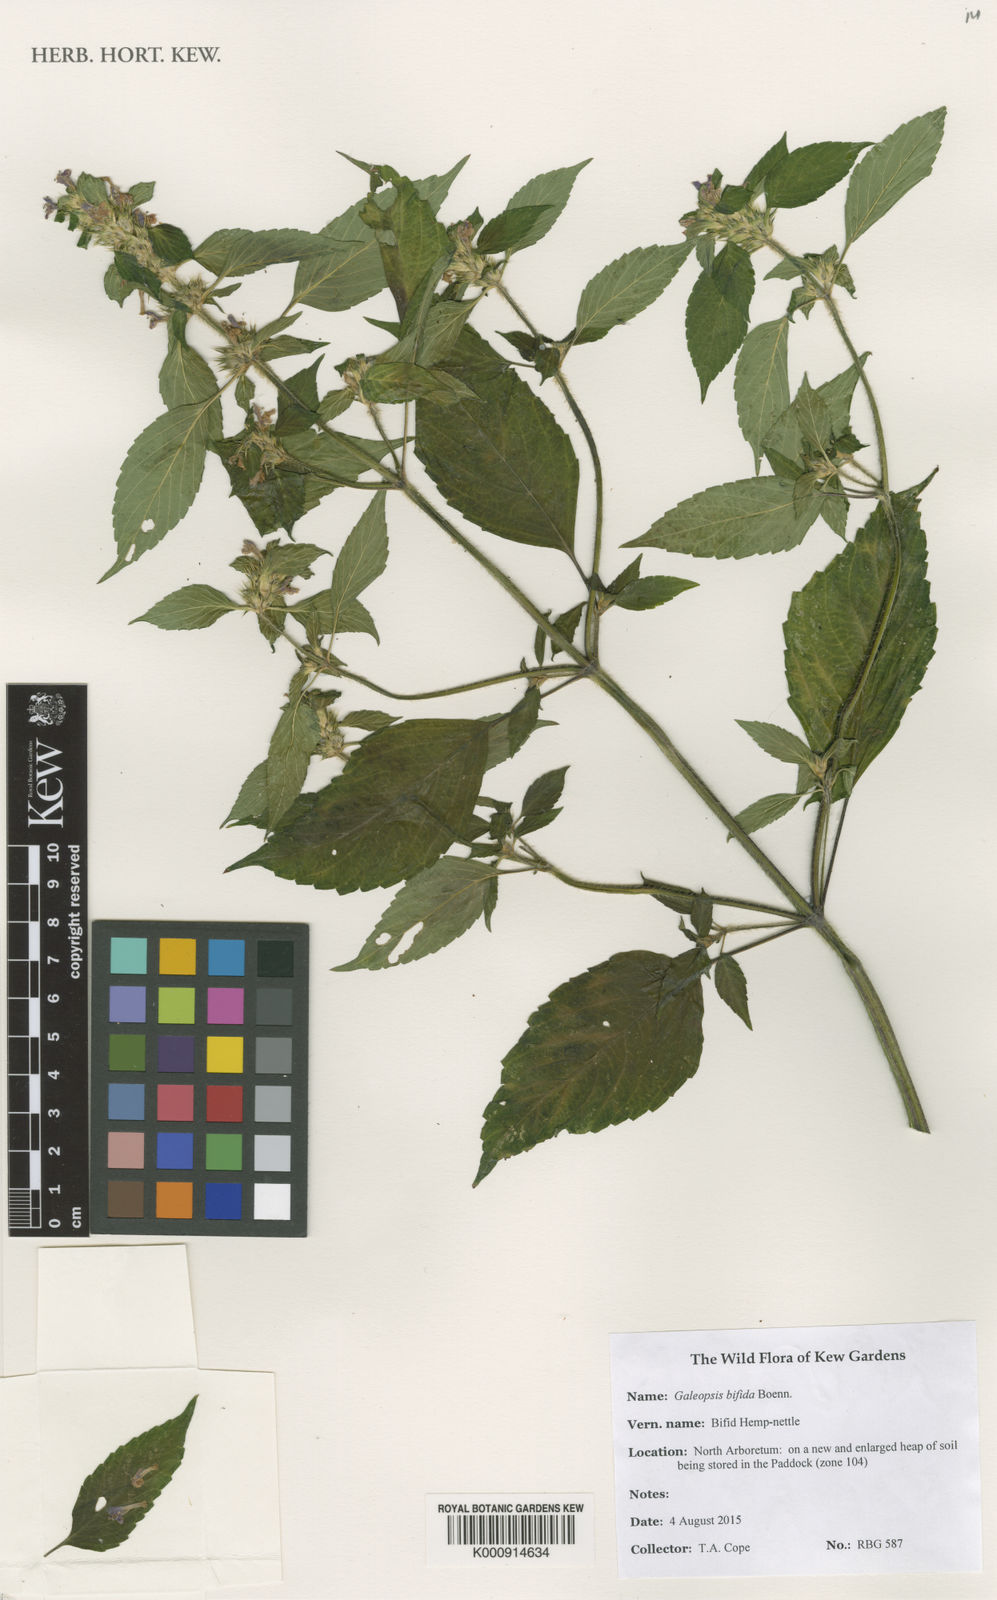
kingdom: Plantae
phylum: Tracheophyta
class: Magnoliopsida
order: Lamiales
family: Lamiaceae
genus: Galeopsis
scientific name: Galeopsis bifida
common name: Bifid hemp-nettle
